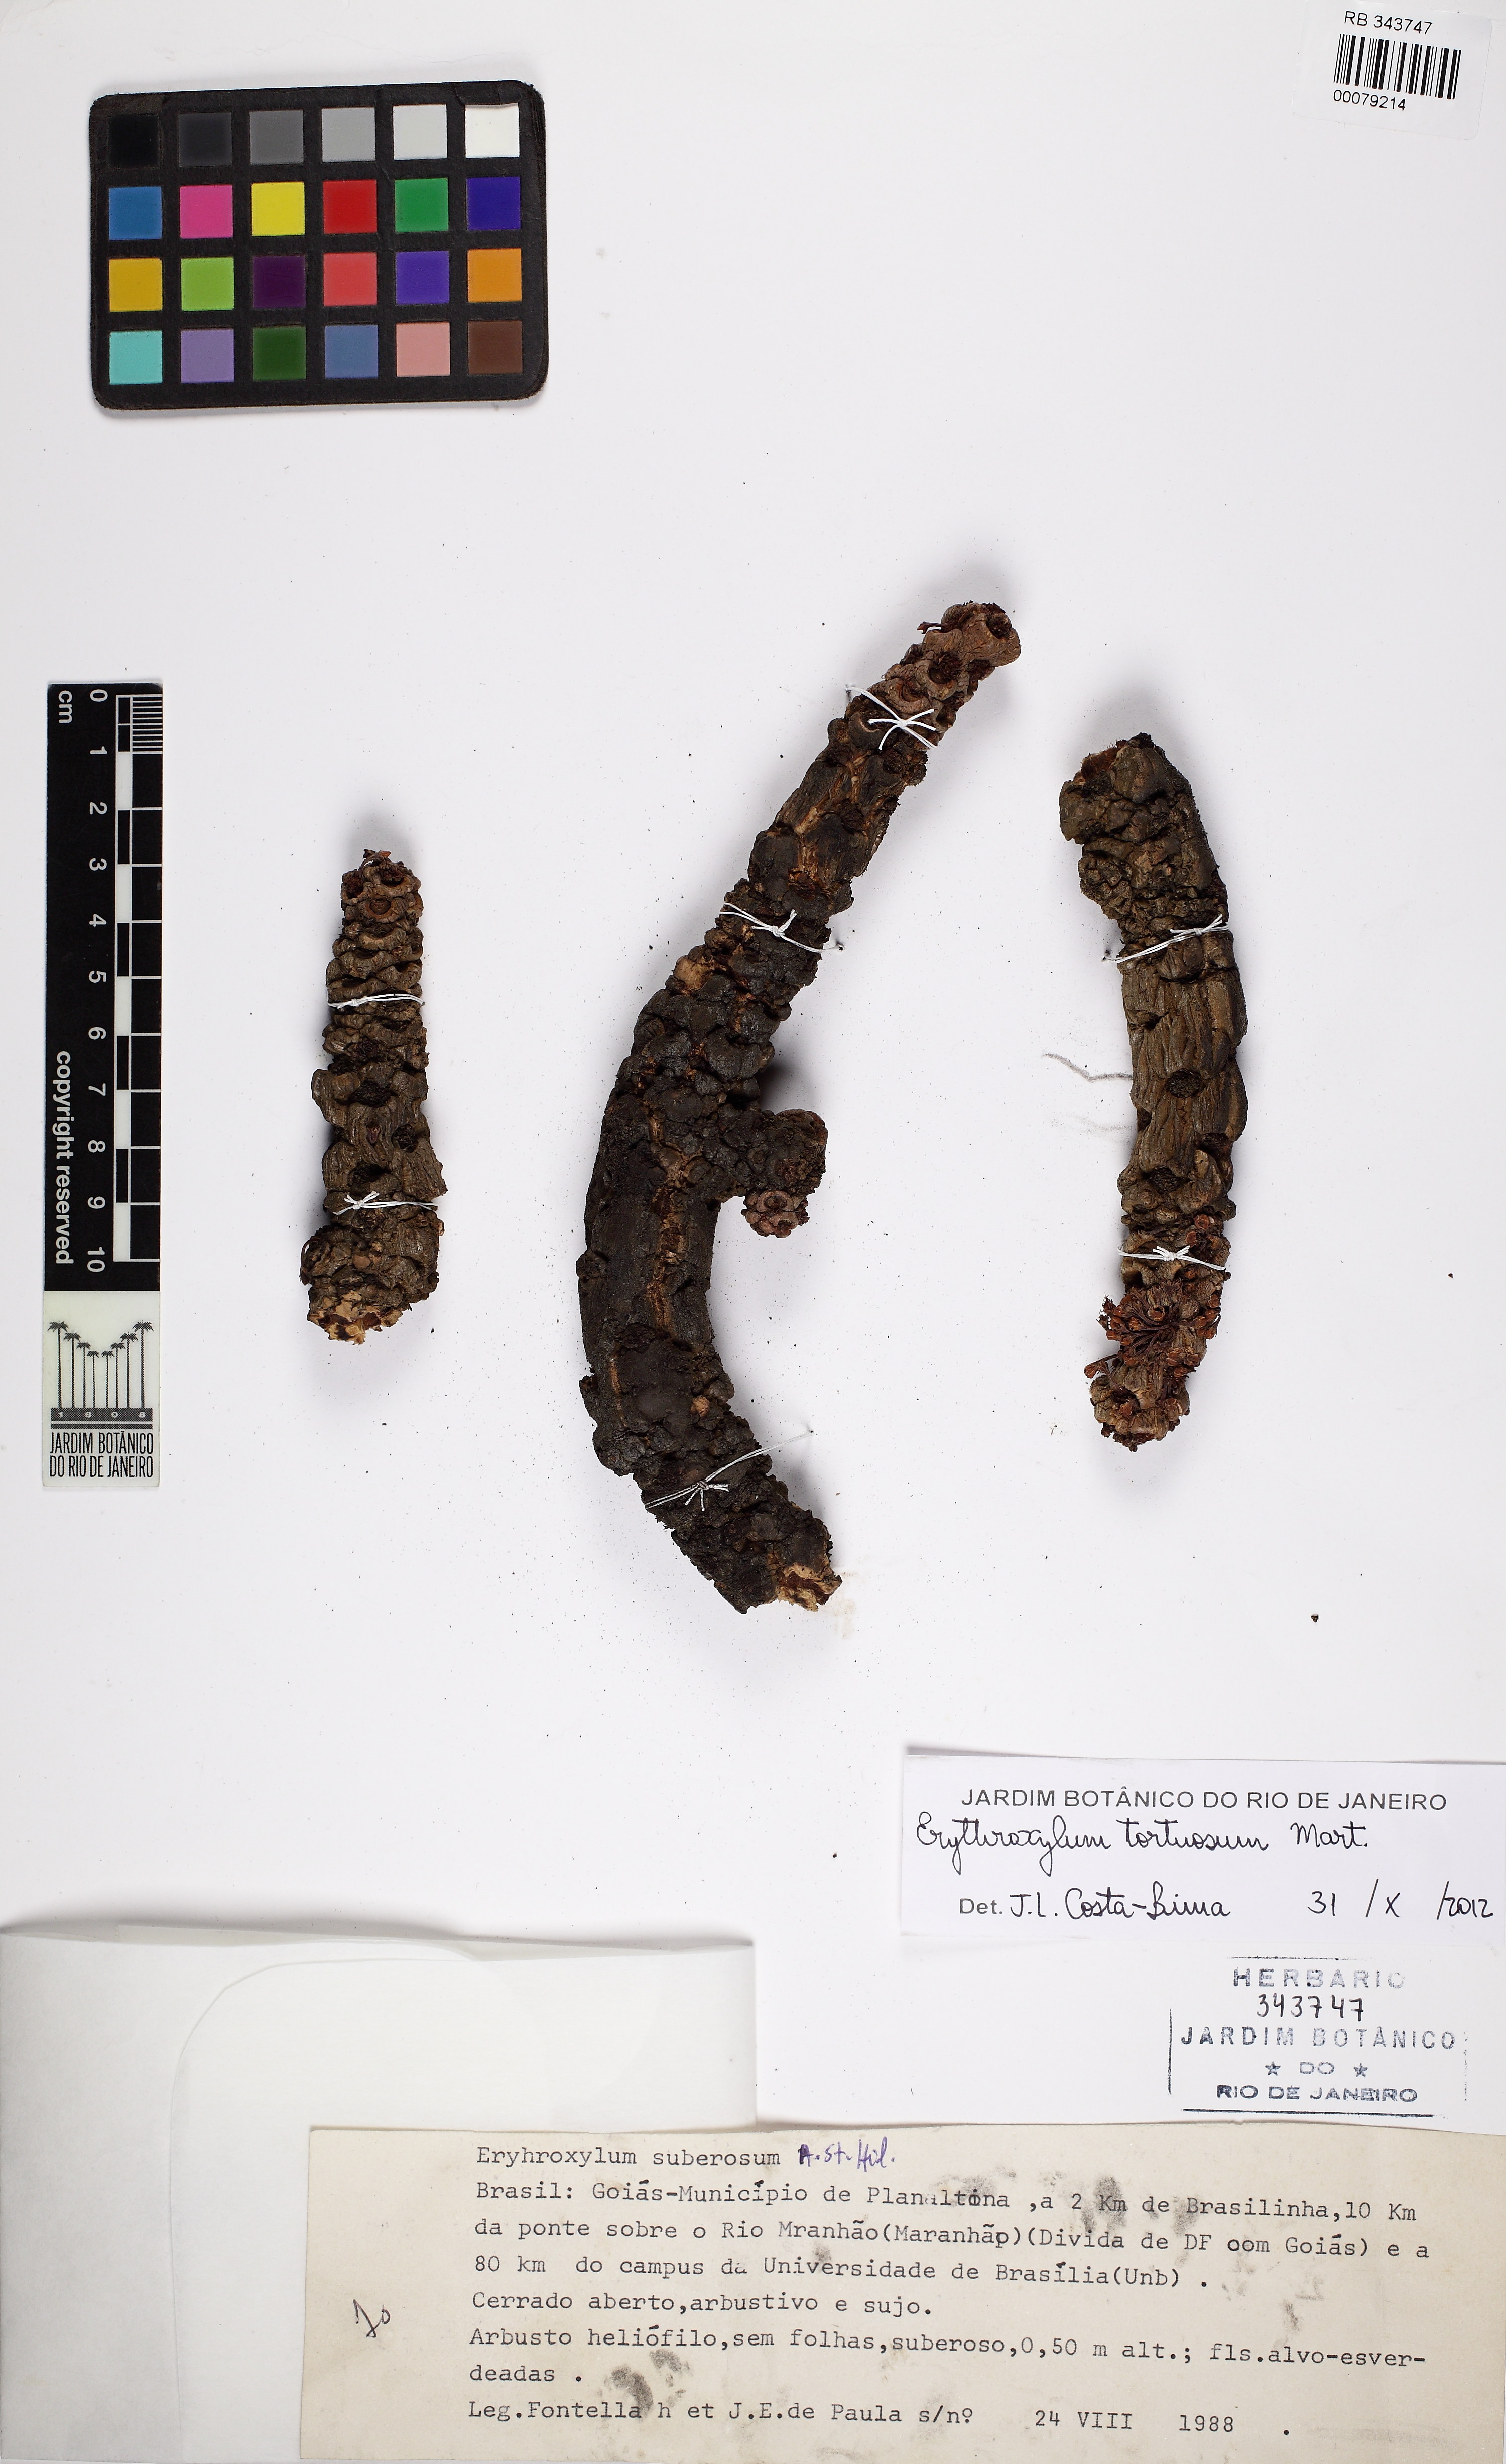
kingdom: Plantae
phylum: Tracheophyta
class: Magnoliopsida
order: Malpighiales
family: Erythroxylaceae
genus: Erythroxylum
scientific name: Erythroxylum tortuosum
